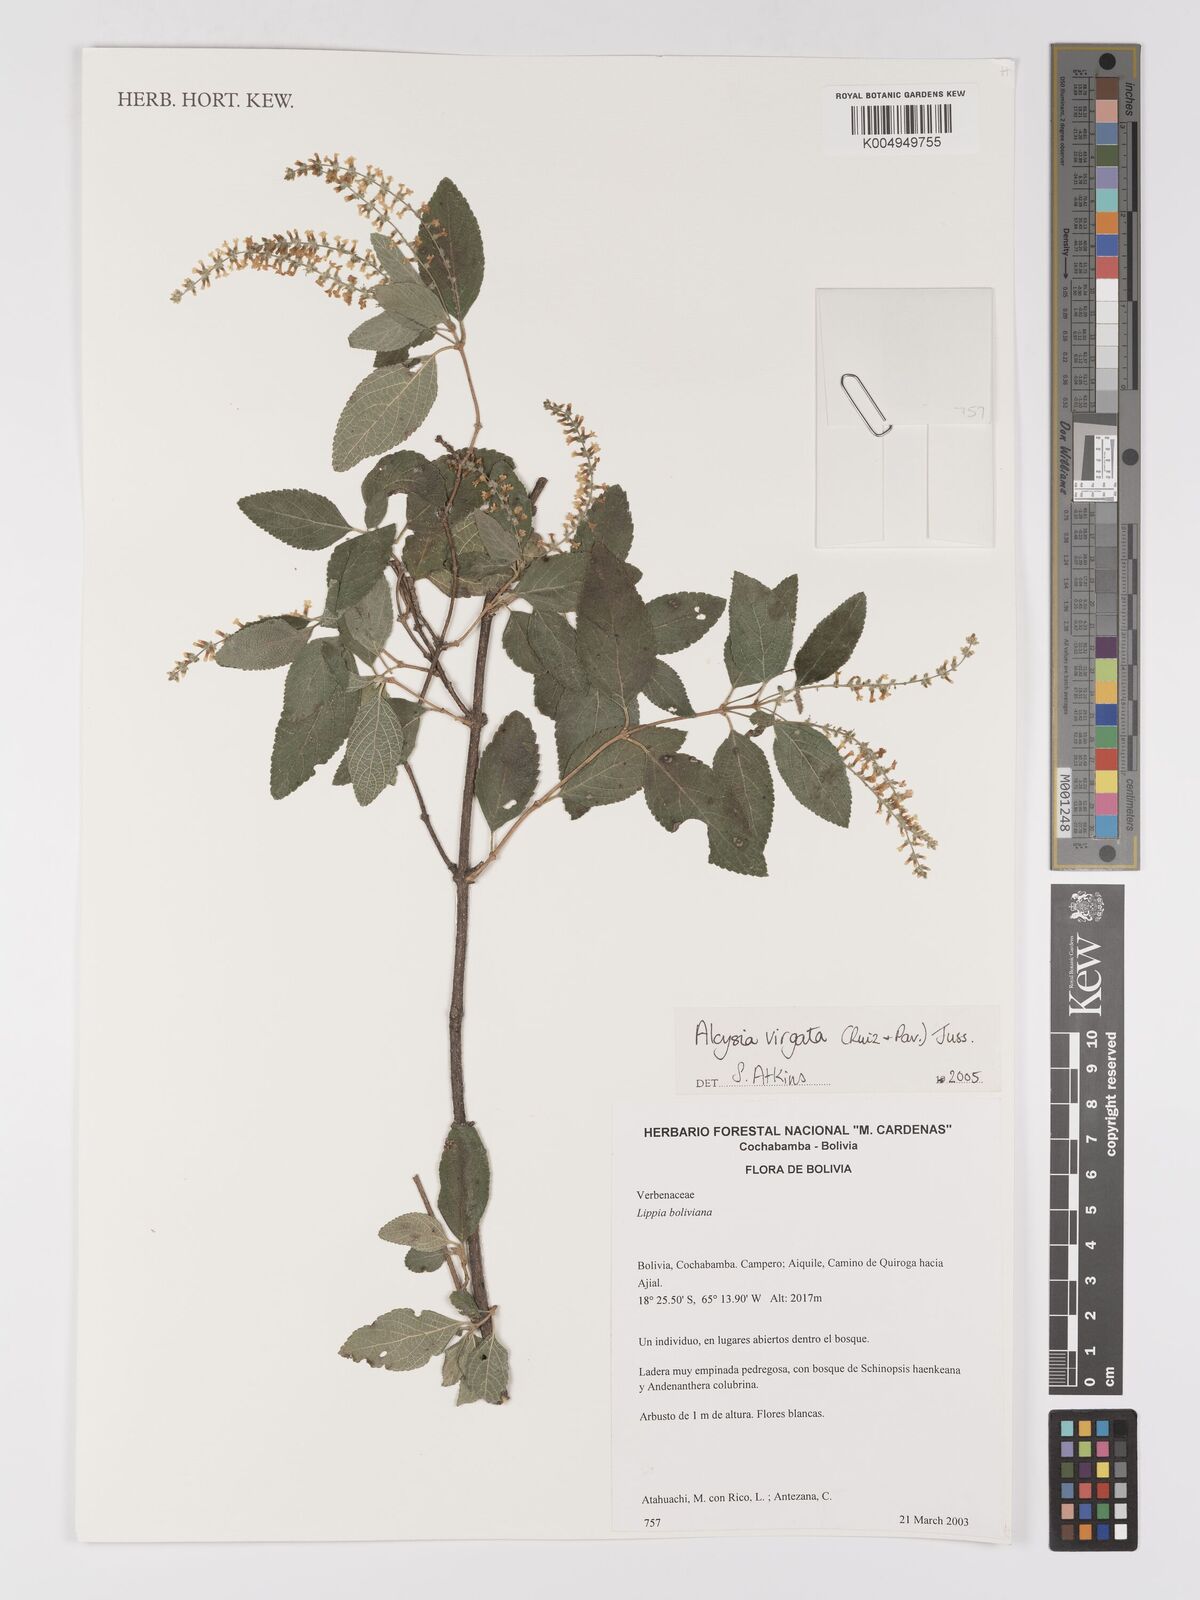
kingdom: Plantae
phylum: Tracheophyta
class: Magnoliopsida
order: Lamiales
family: Verbenaceae
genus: Aloysia
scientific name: Aloysia virgata
